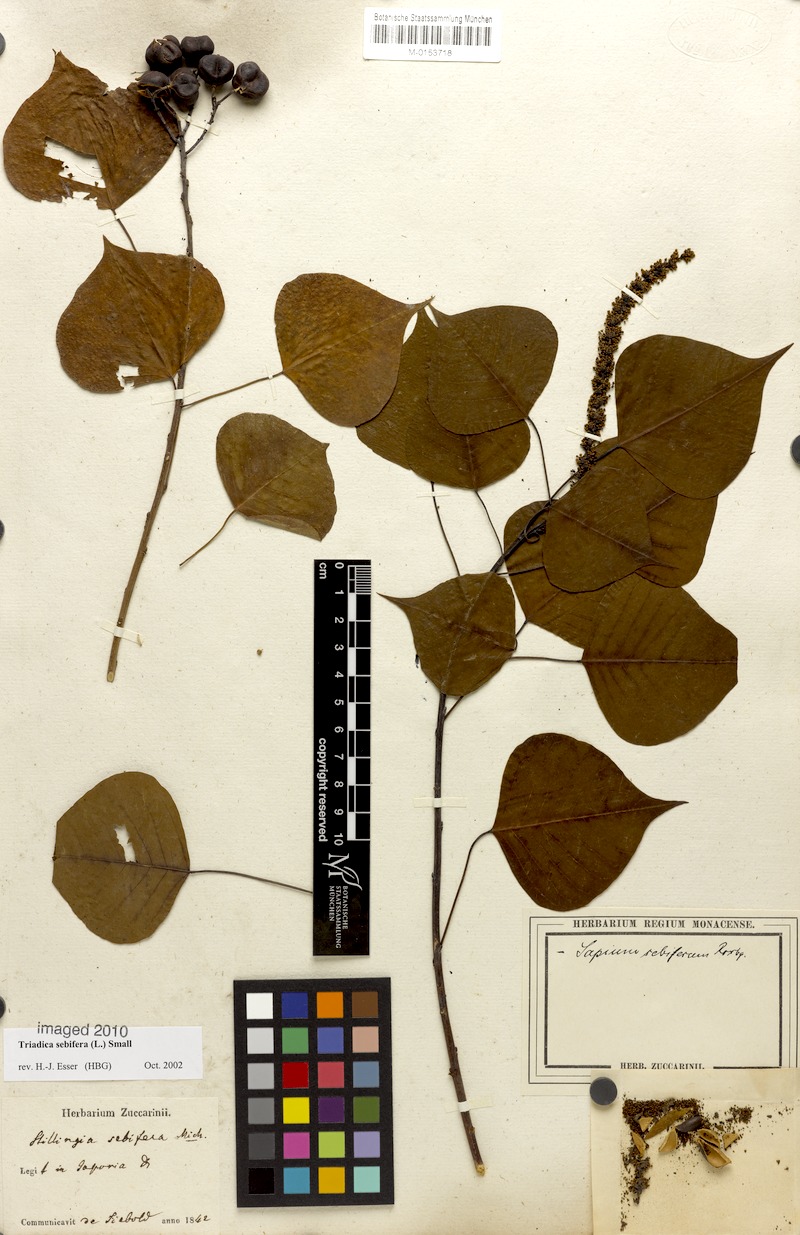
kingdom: Plantae
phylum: Tracheophyta
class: Magnoliopsida
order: Malpighiales
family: Euphorbiaceae
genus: Triadica
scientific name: Triadica sebifera
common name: Chinese tallow
